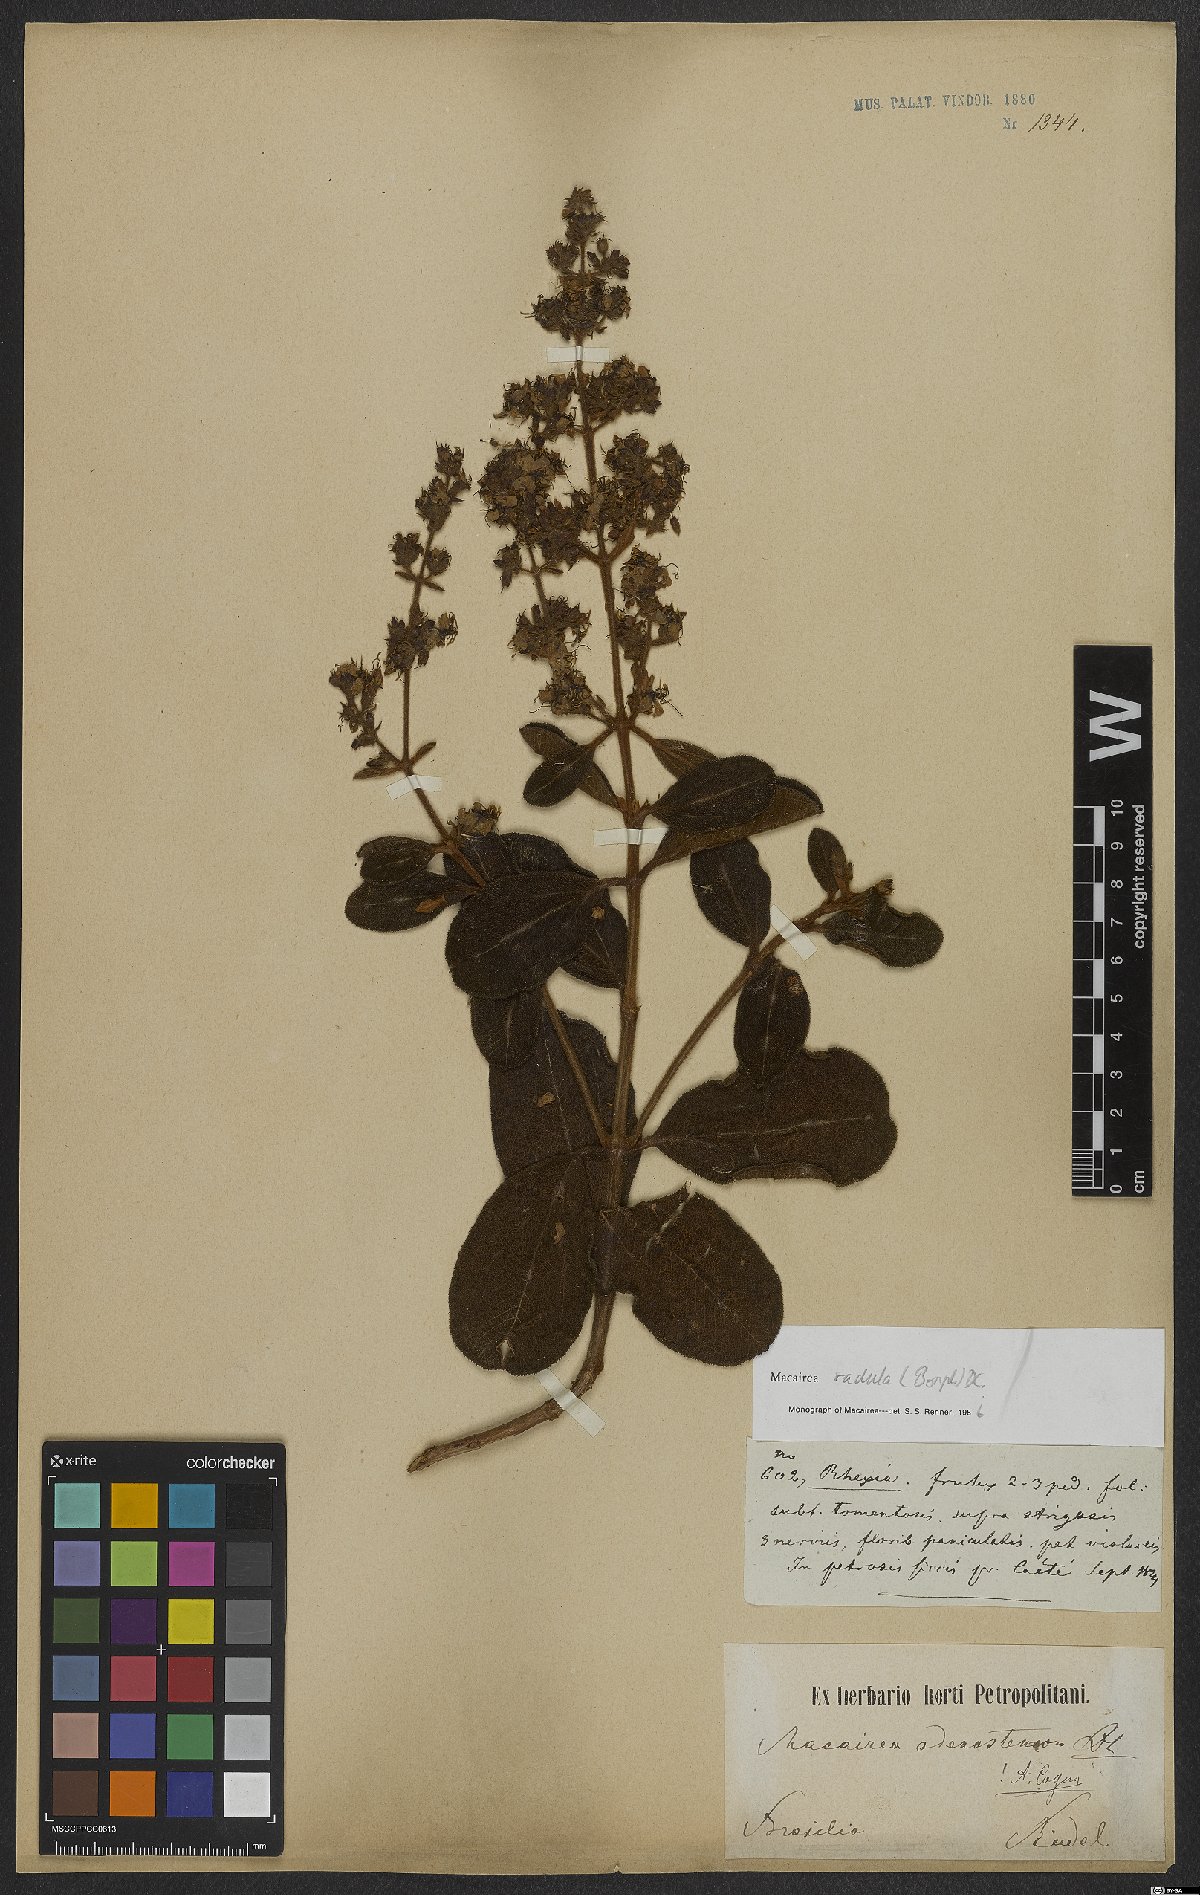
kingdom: Plantae
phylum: Tracheophyta
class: Magnoliopsida
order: Myrtales
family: Melastomataceae
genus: Macairea
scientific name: Macairea radula
